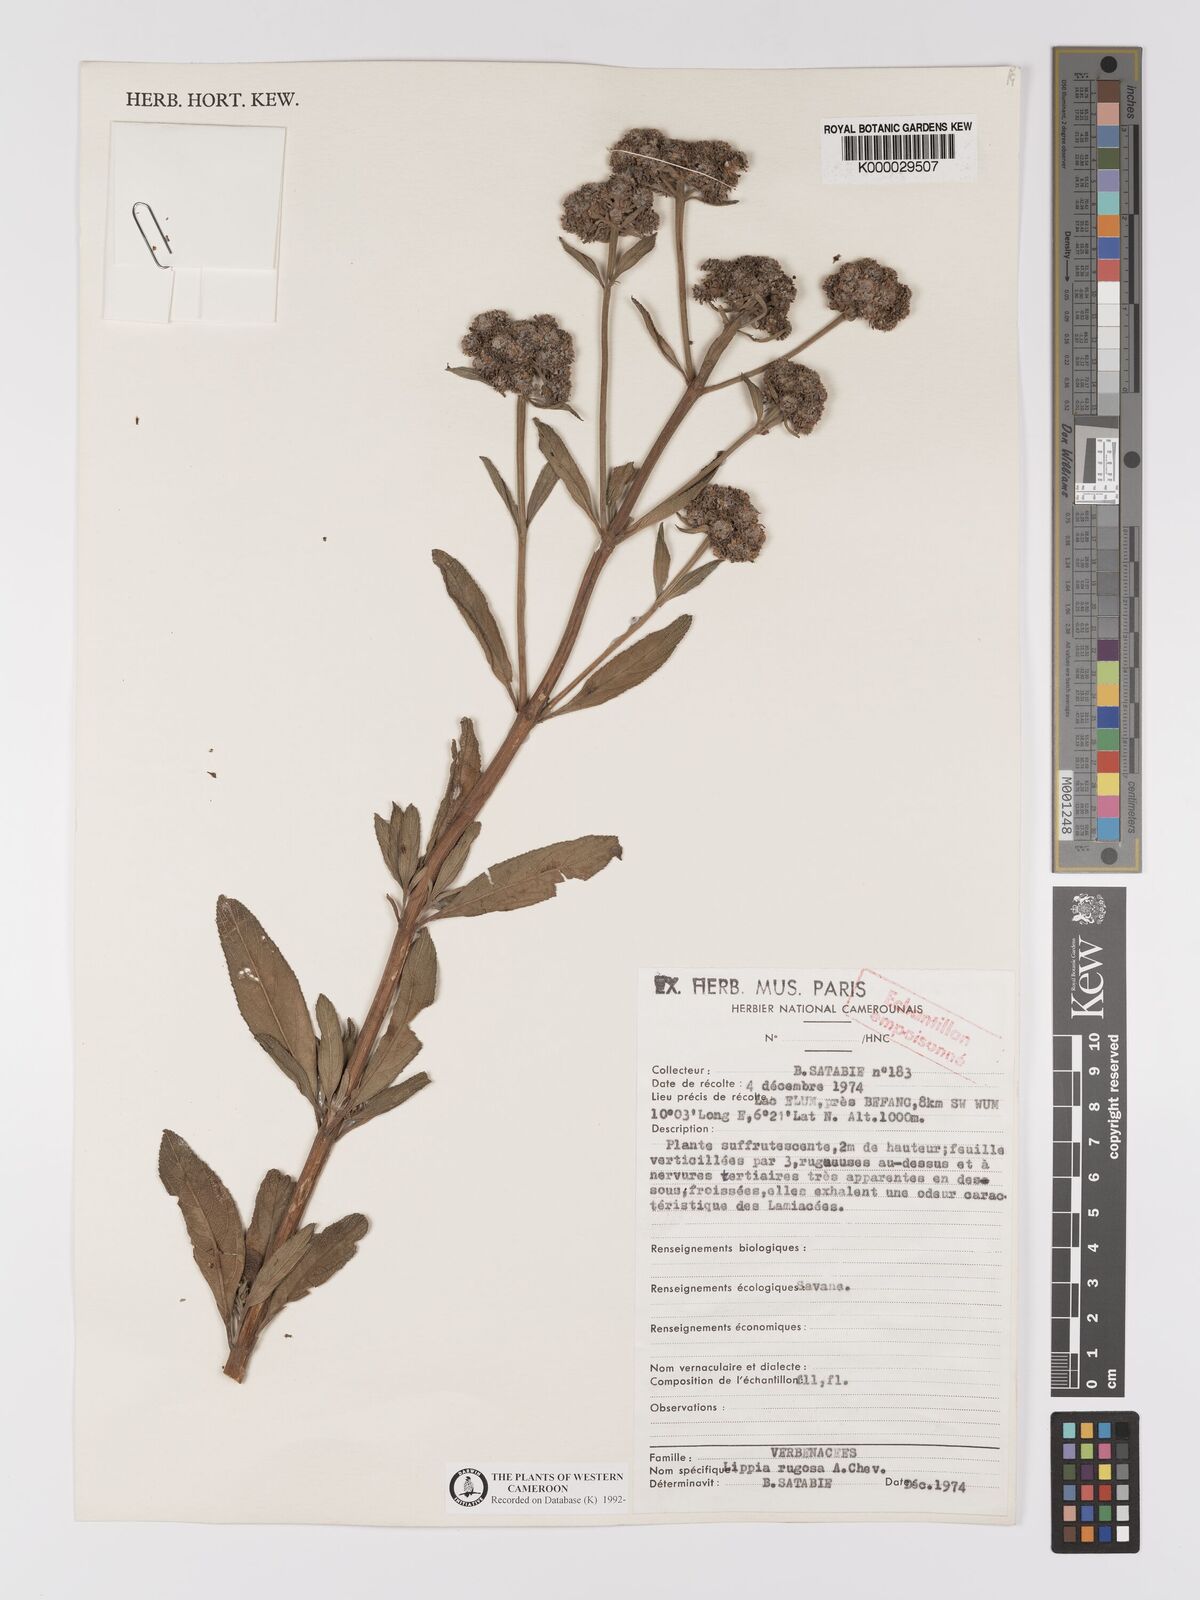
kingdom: Plantae
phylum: Tracheophyta
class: Magnoliopsida
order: Lamiales
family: Verbenaceae
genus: Lippia
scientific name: Lippia rugosa
